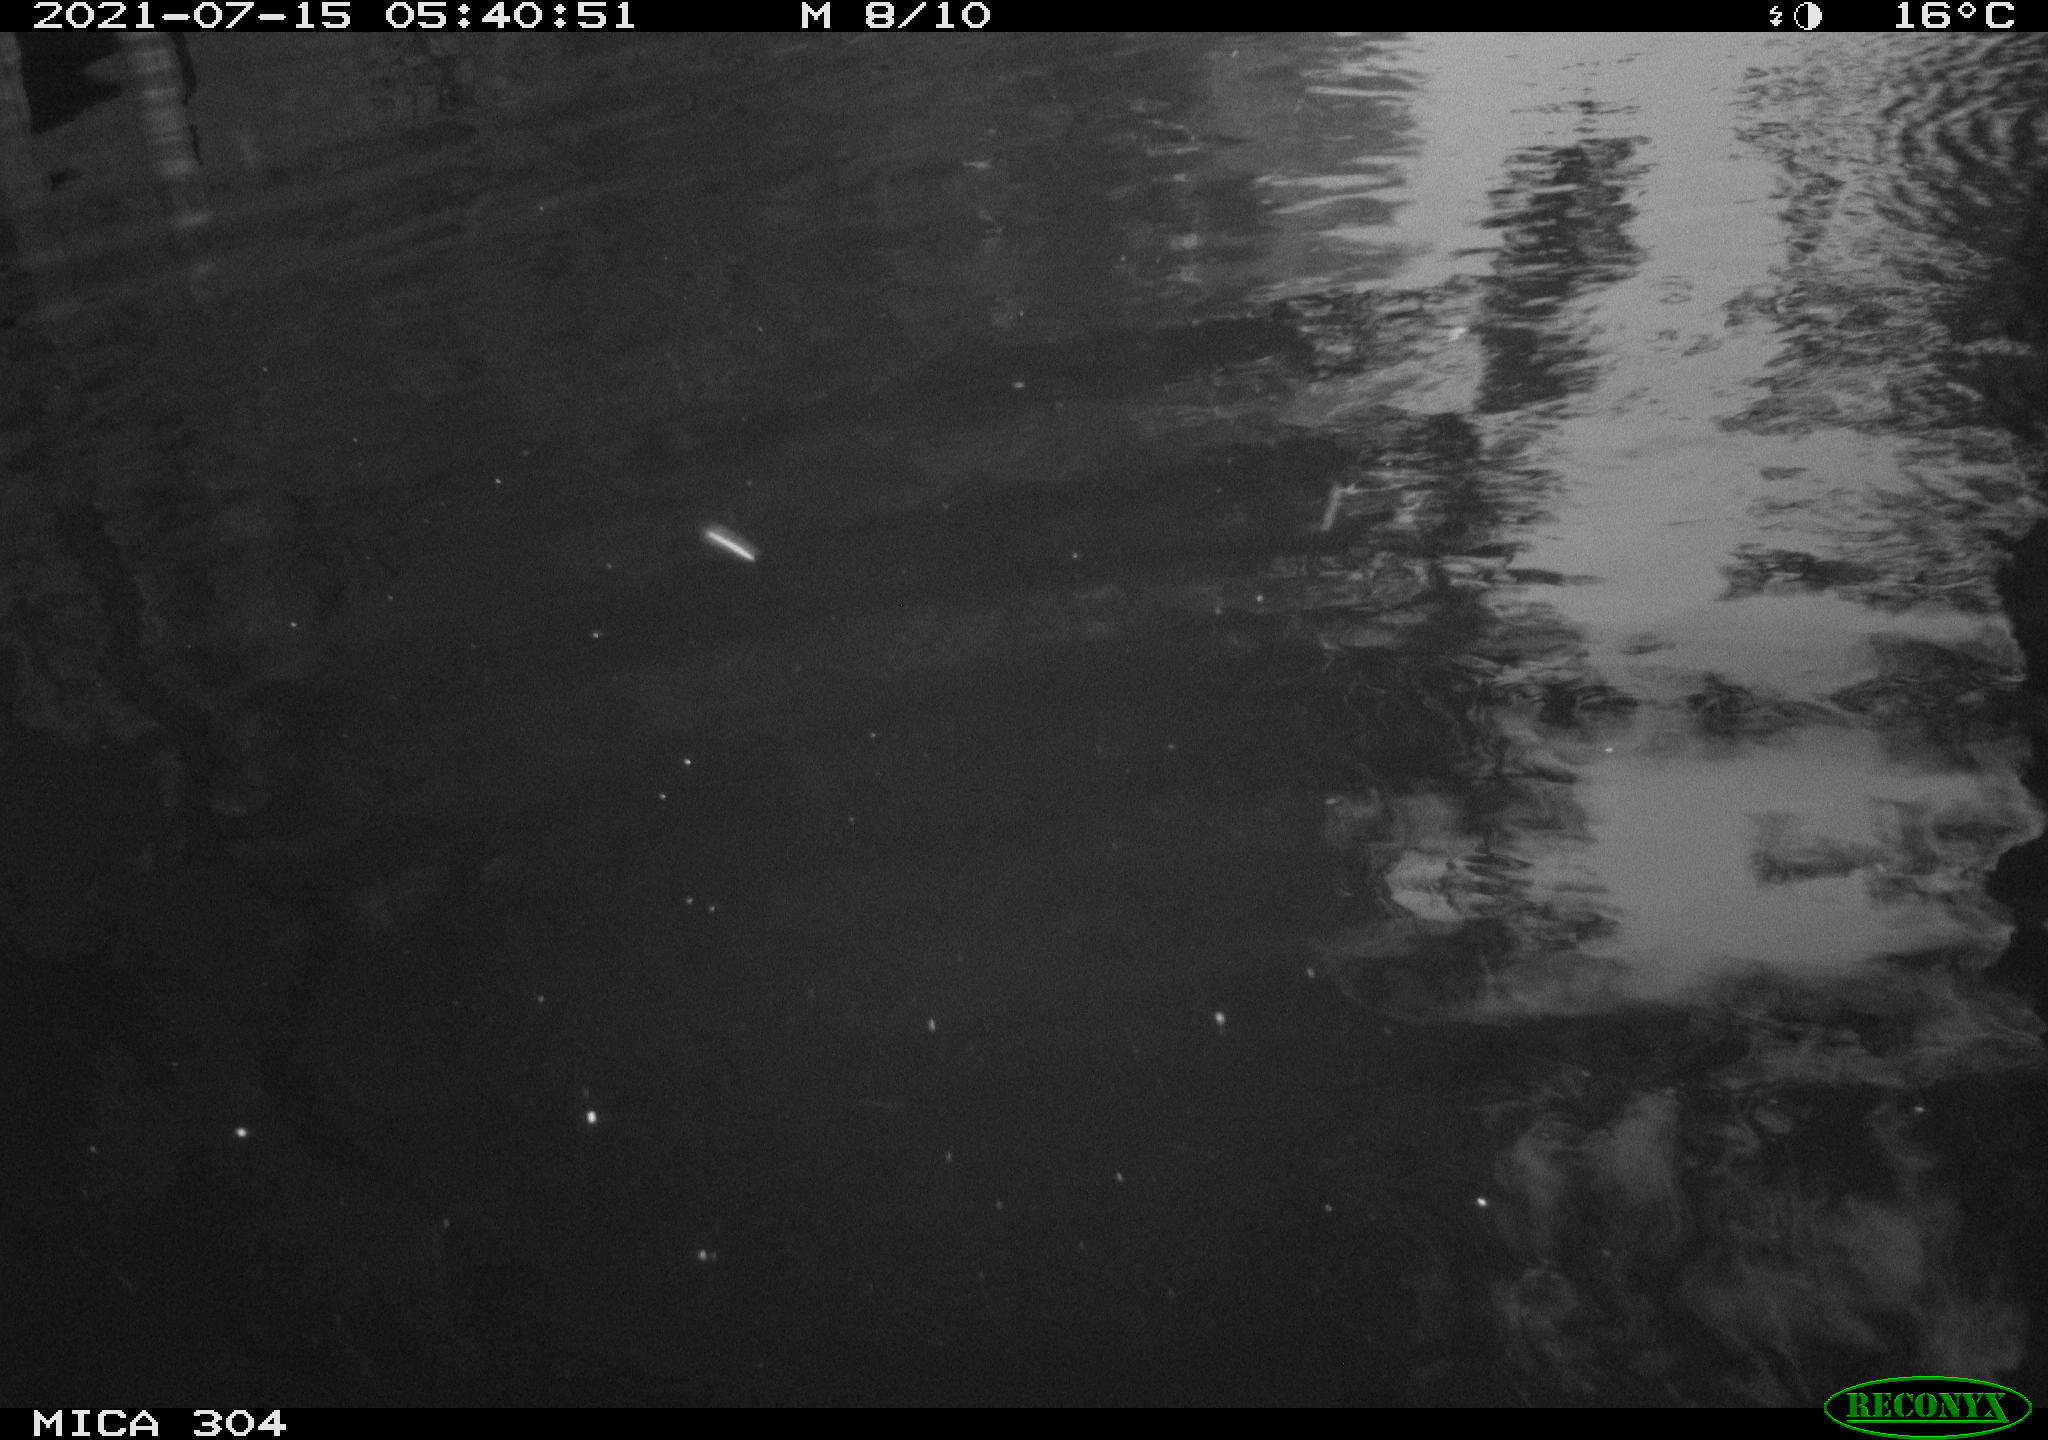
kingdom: Animalia
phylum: Chordata
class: Aves
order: Anseriformes
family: Anatidae
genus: Anas
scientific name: Anas platyrhynchos
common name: Mallard
